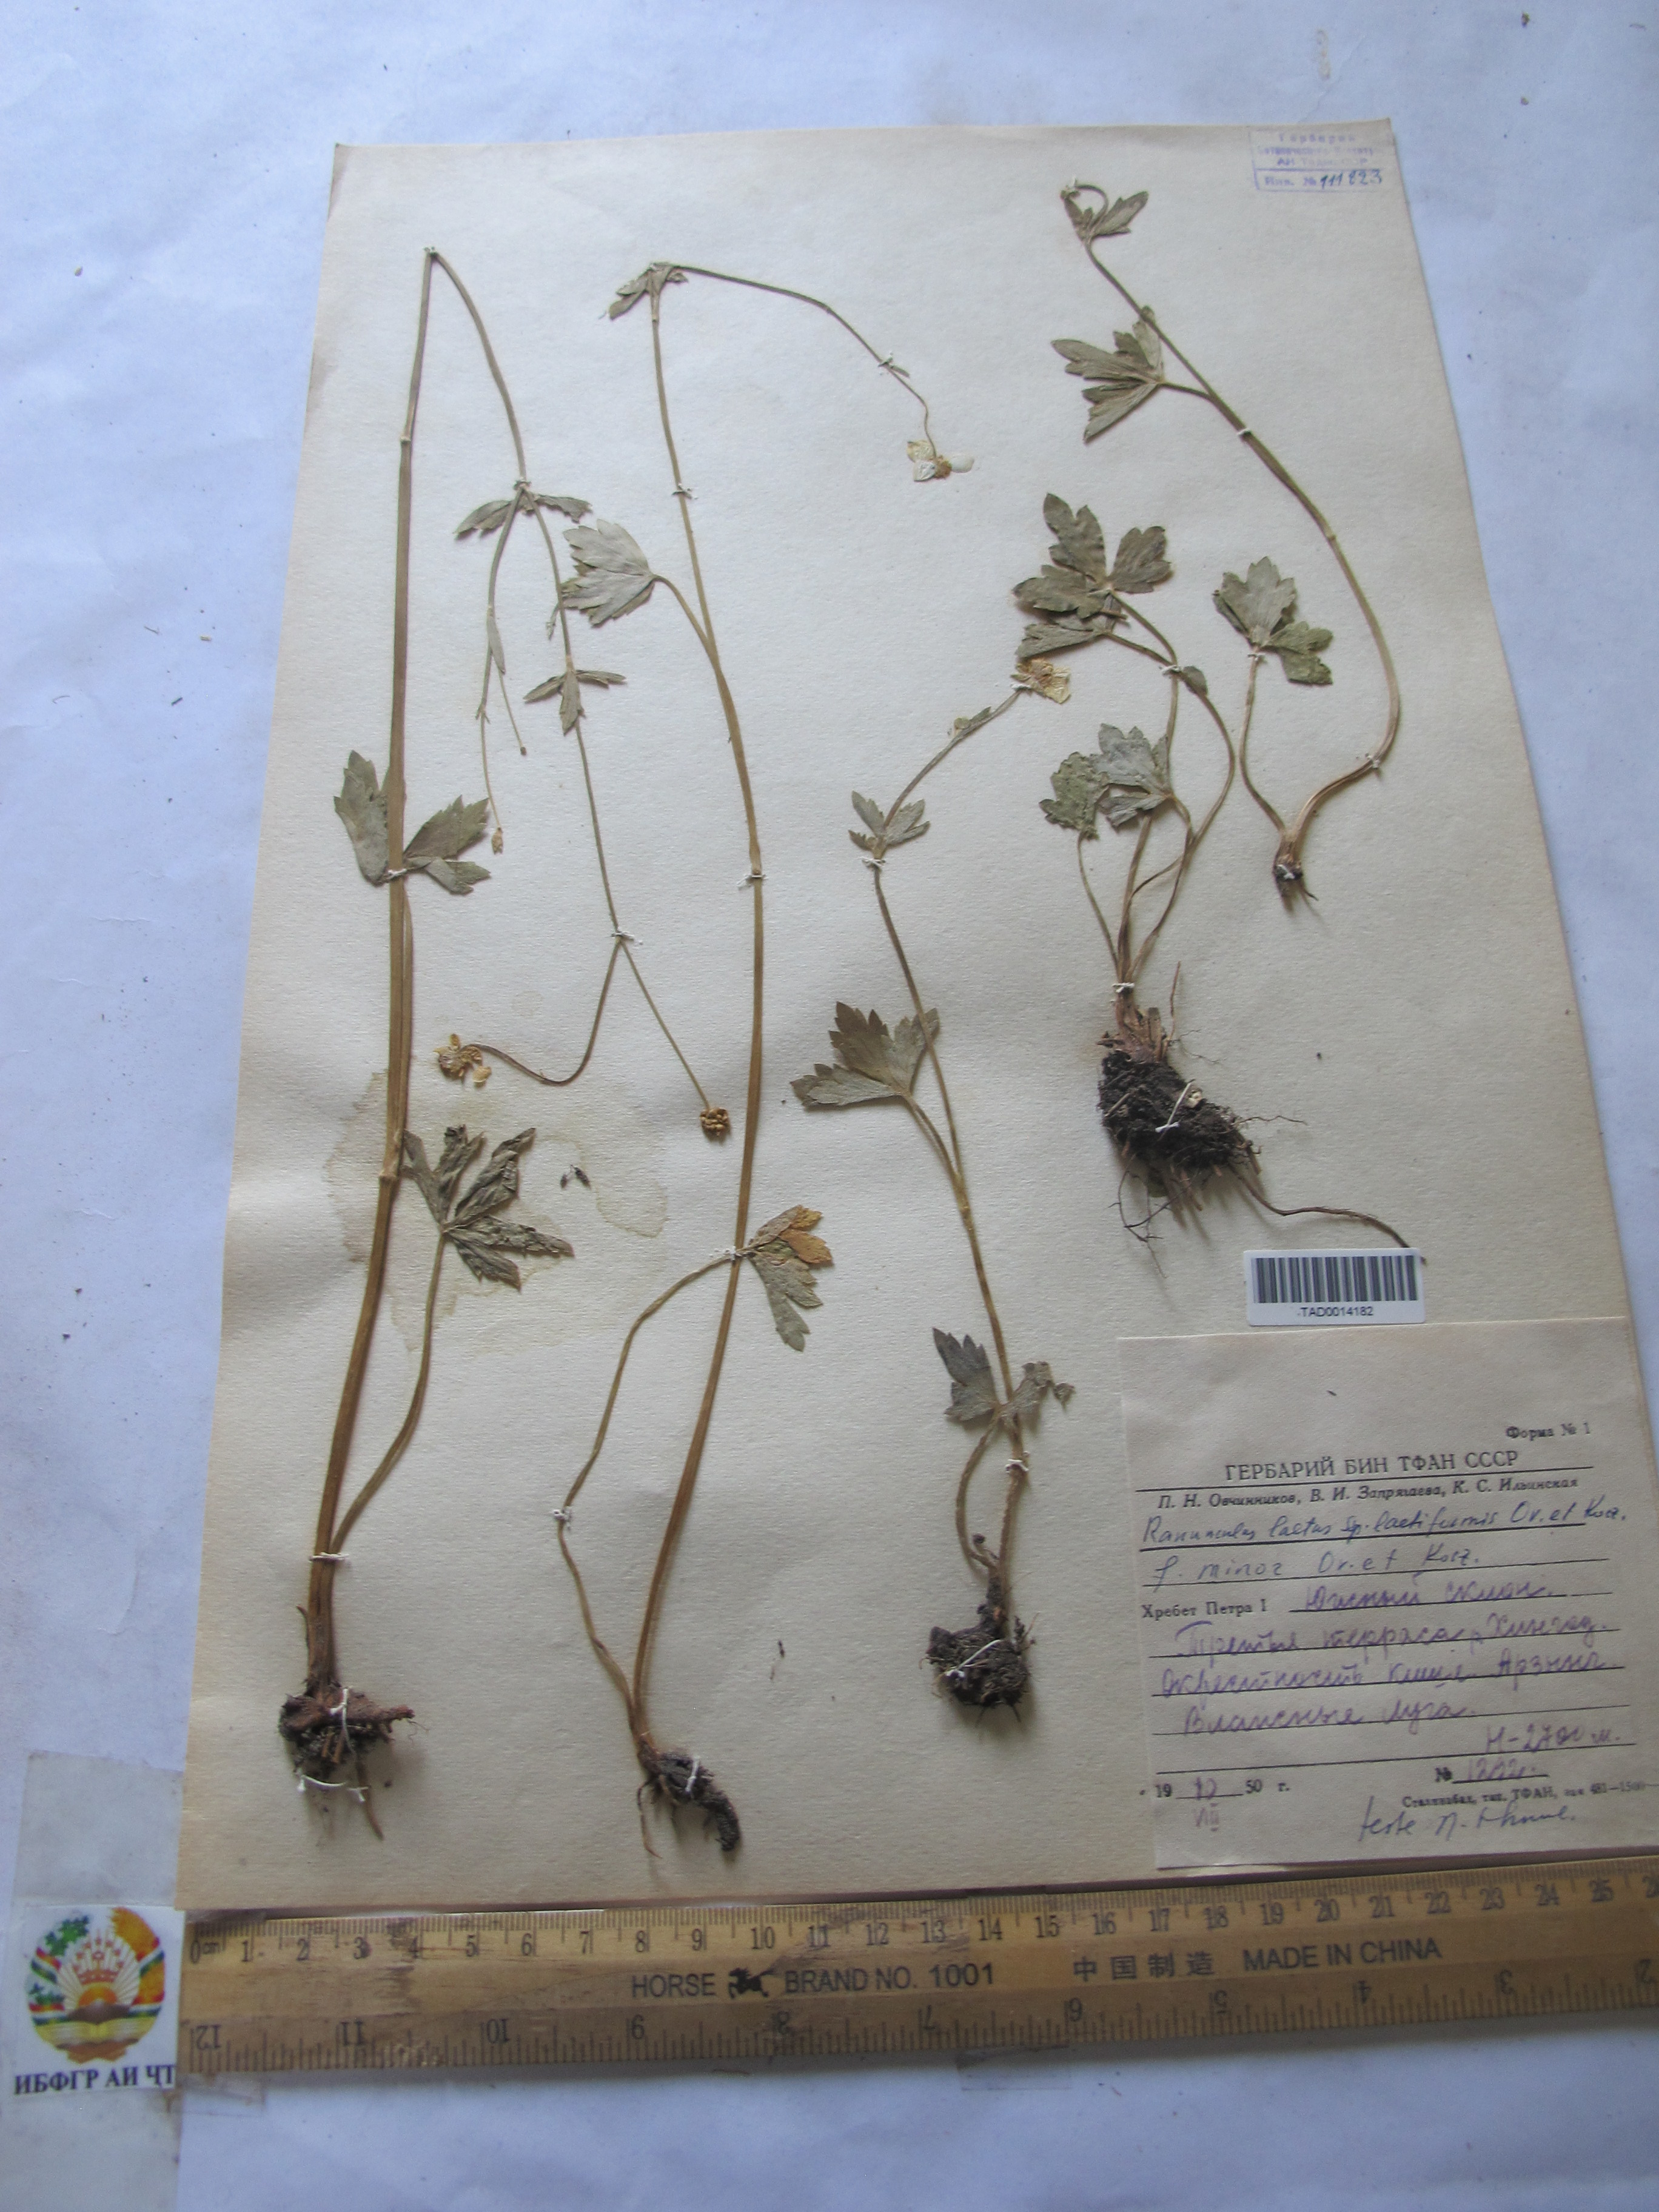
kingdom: Plantae
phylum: Tracheophyta
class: Magnoliopsida
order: Ranunculales
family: Ranunculaceae
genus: Ranunculus
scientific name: Ranunculus distans
